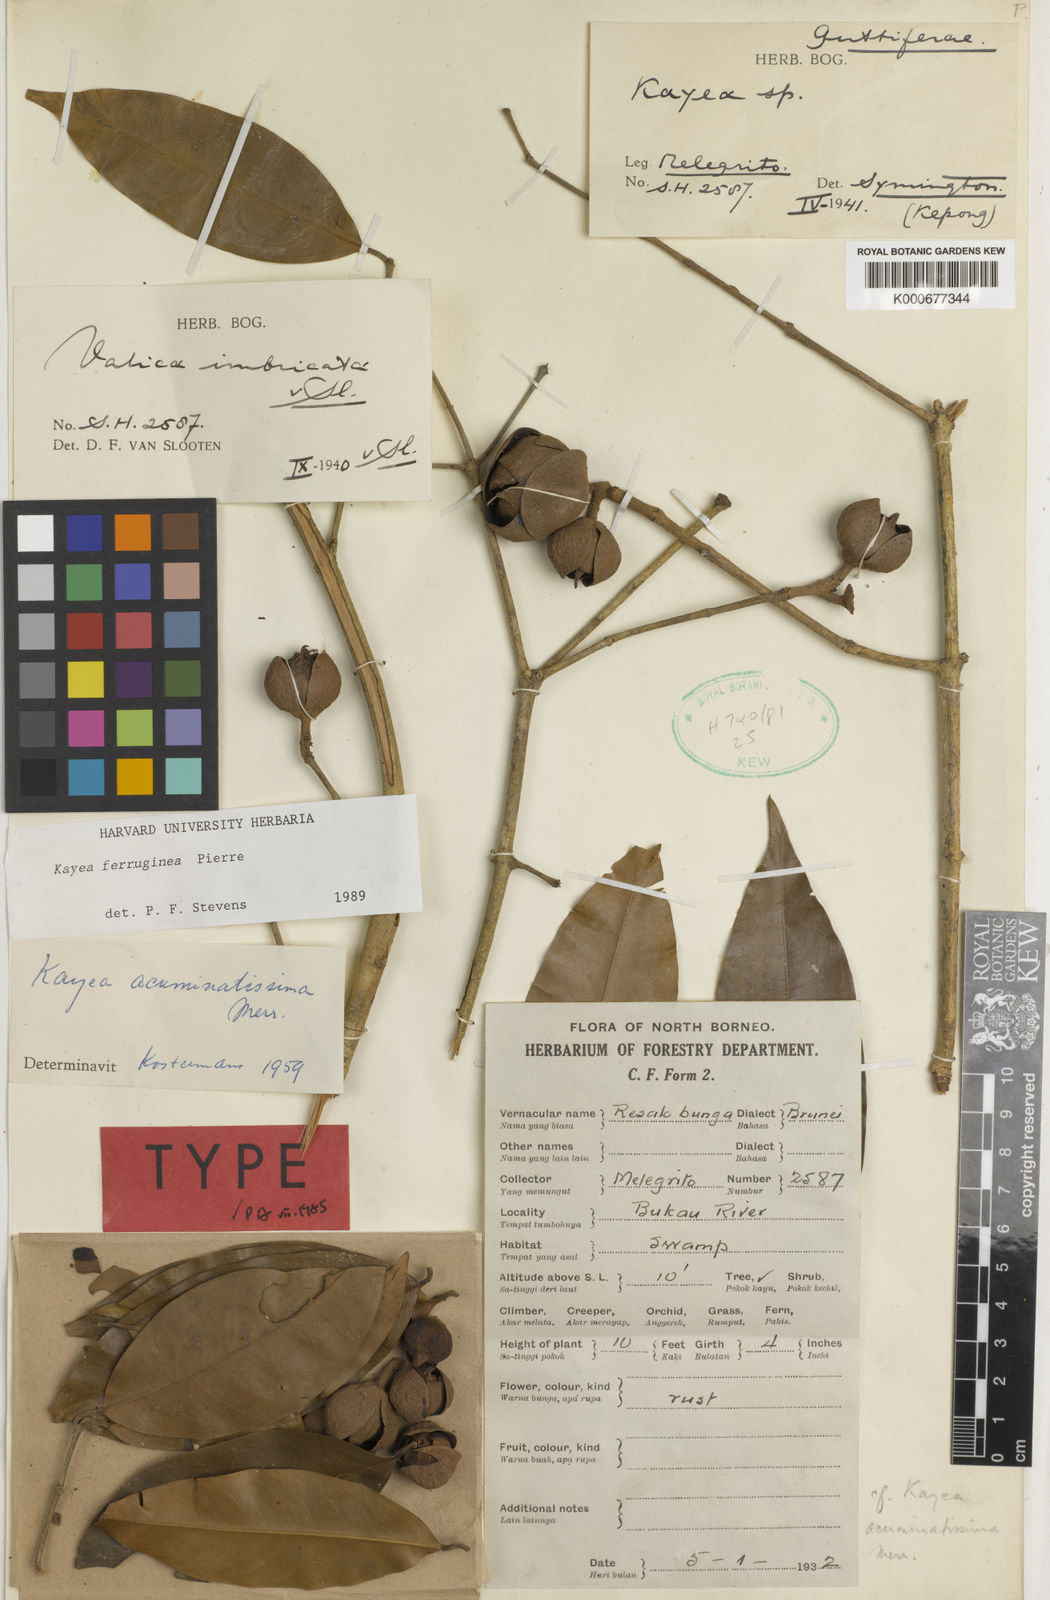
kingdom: Plantae
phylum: Tracheophyta
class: Magnoliopsida
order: Malpighiales
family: Calophyllaceae
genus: Kayea
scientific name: Kayea manii
